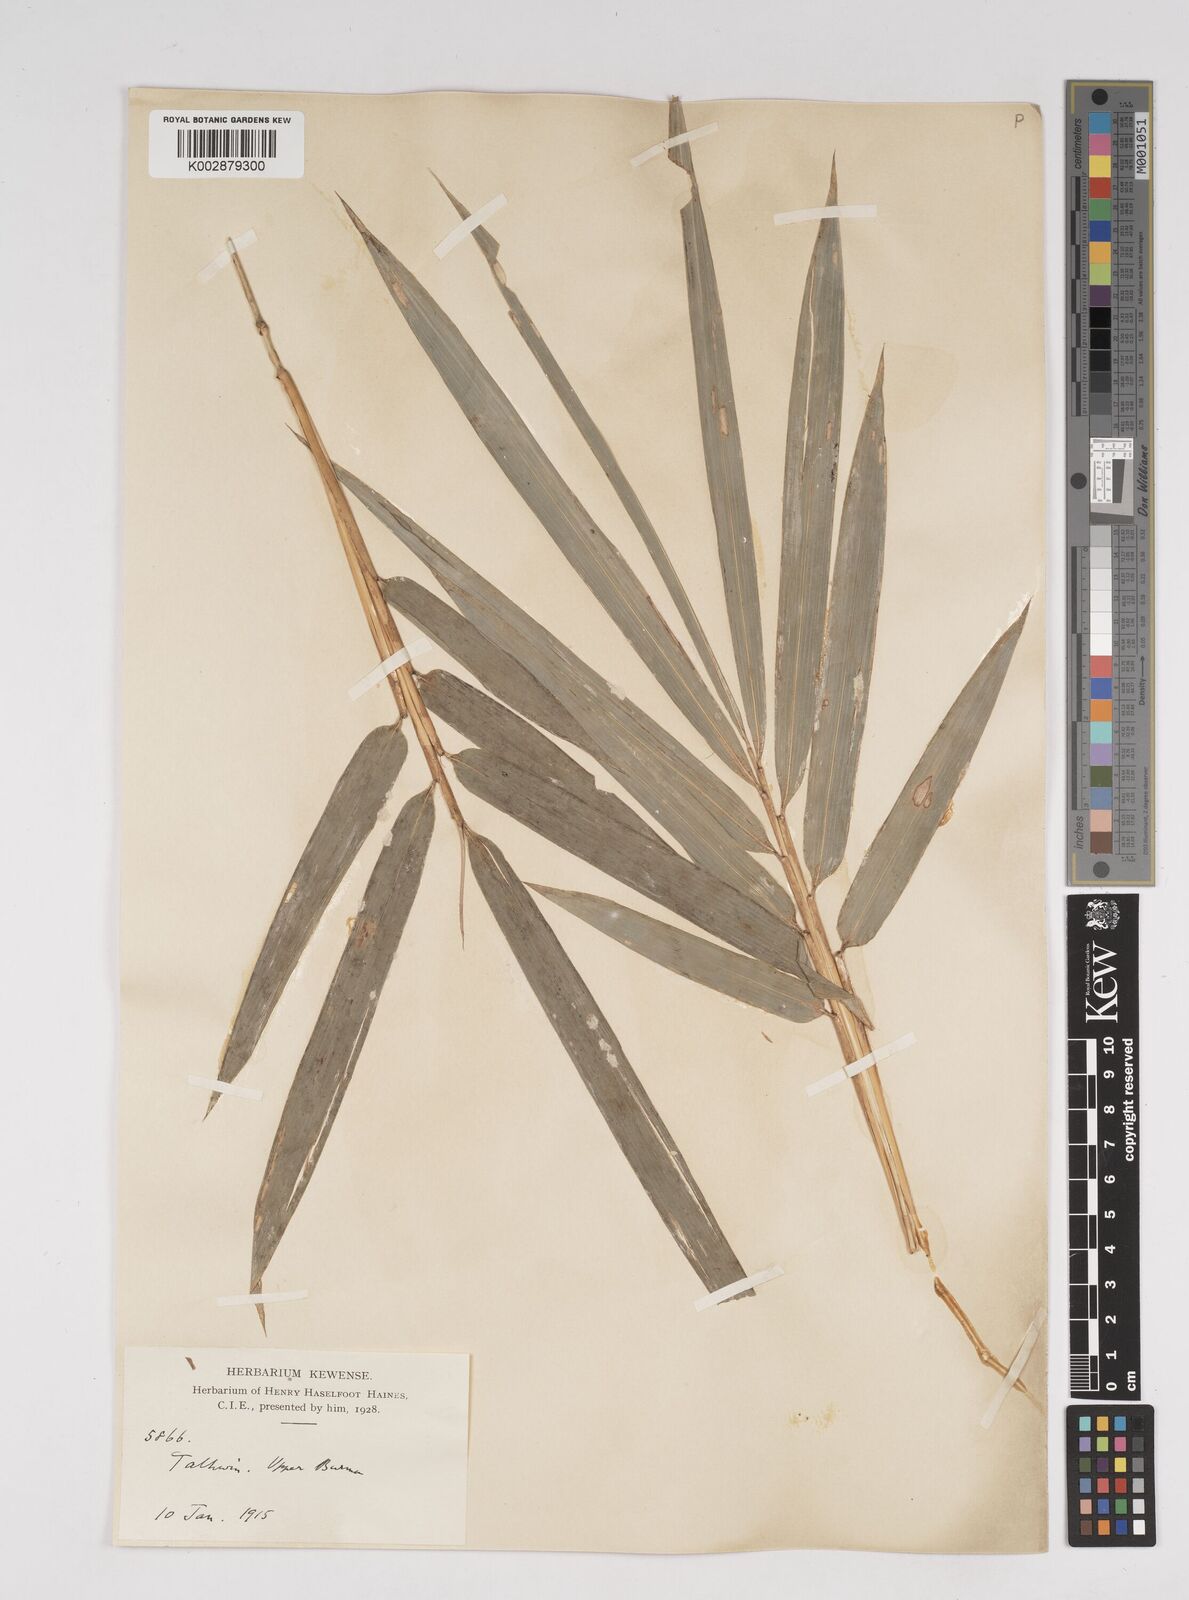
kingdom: Plantae
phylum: Tracheophyta
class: Liliopsida
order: Poales
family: Poaceae
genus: Dendrocalamus
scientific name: Dendrocalamus
